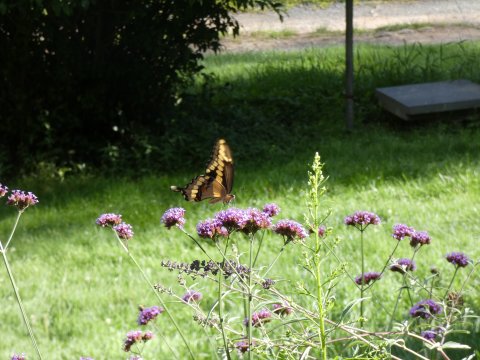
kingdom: Animalia
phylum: Arthropoda
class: Insecta
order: Lepidoptera
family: Papilionidae
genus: Papilio
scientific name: Papilio cresphontes
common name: Eastern Giant Swallowtail
